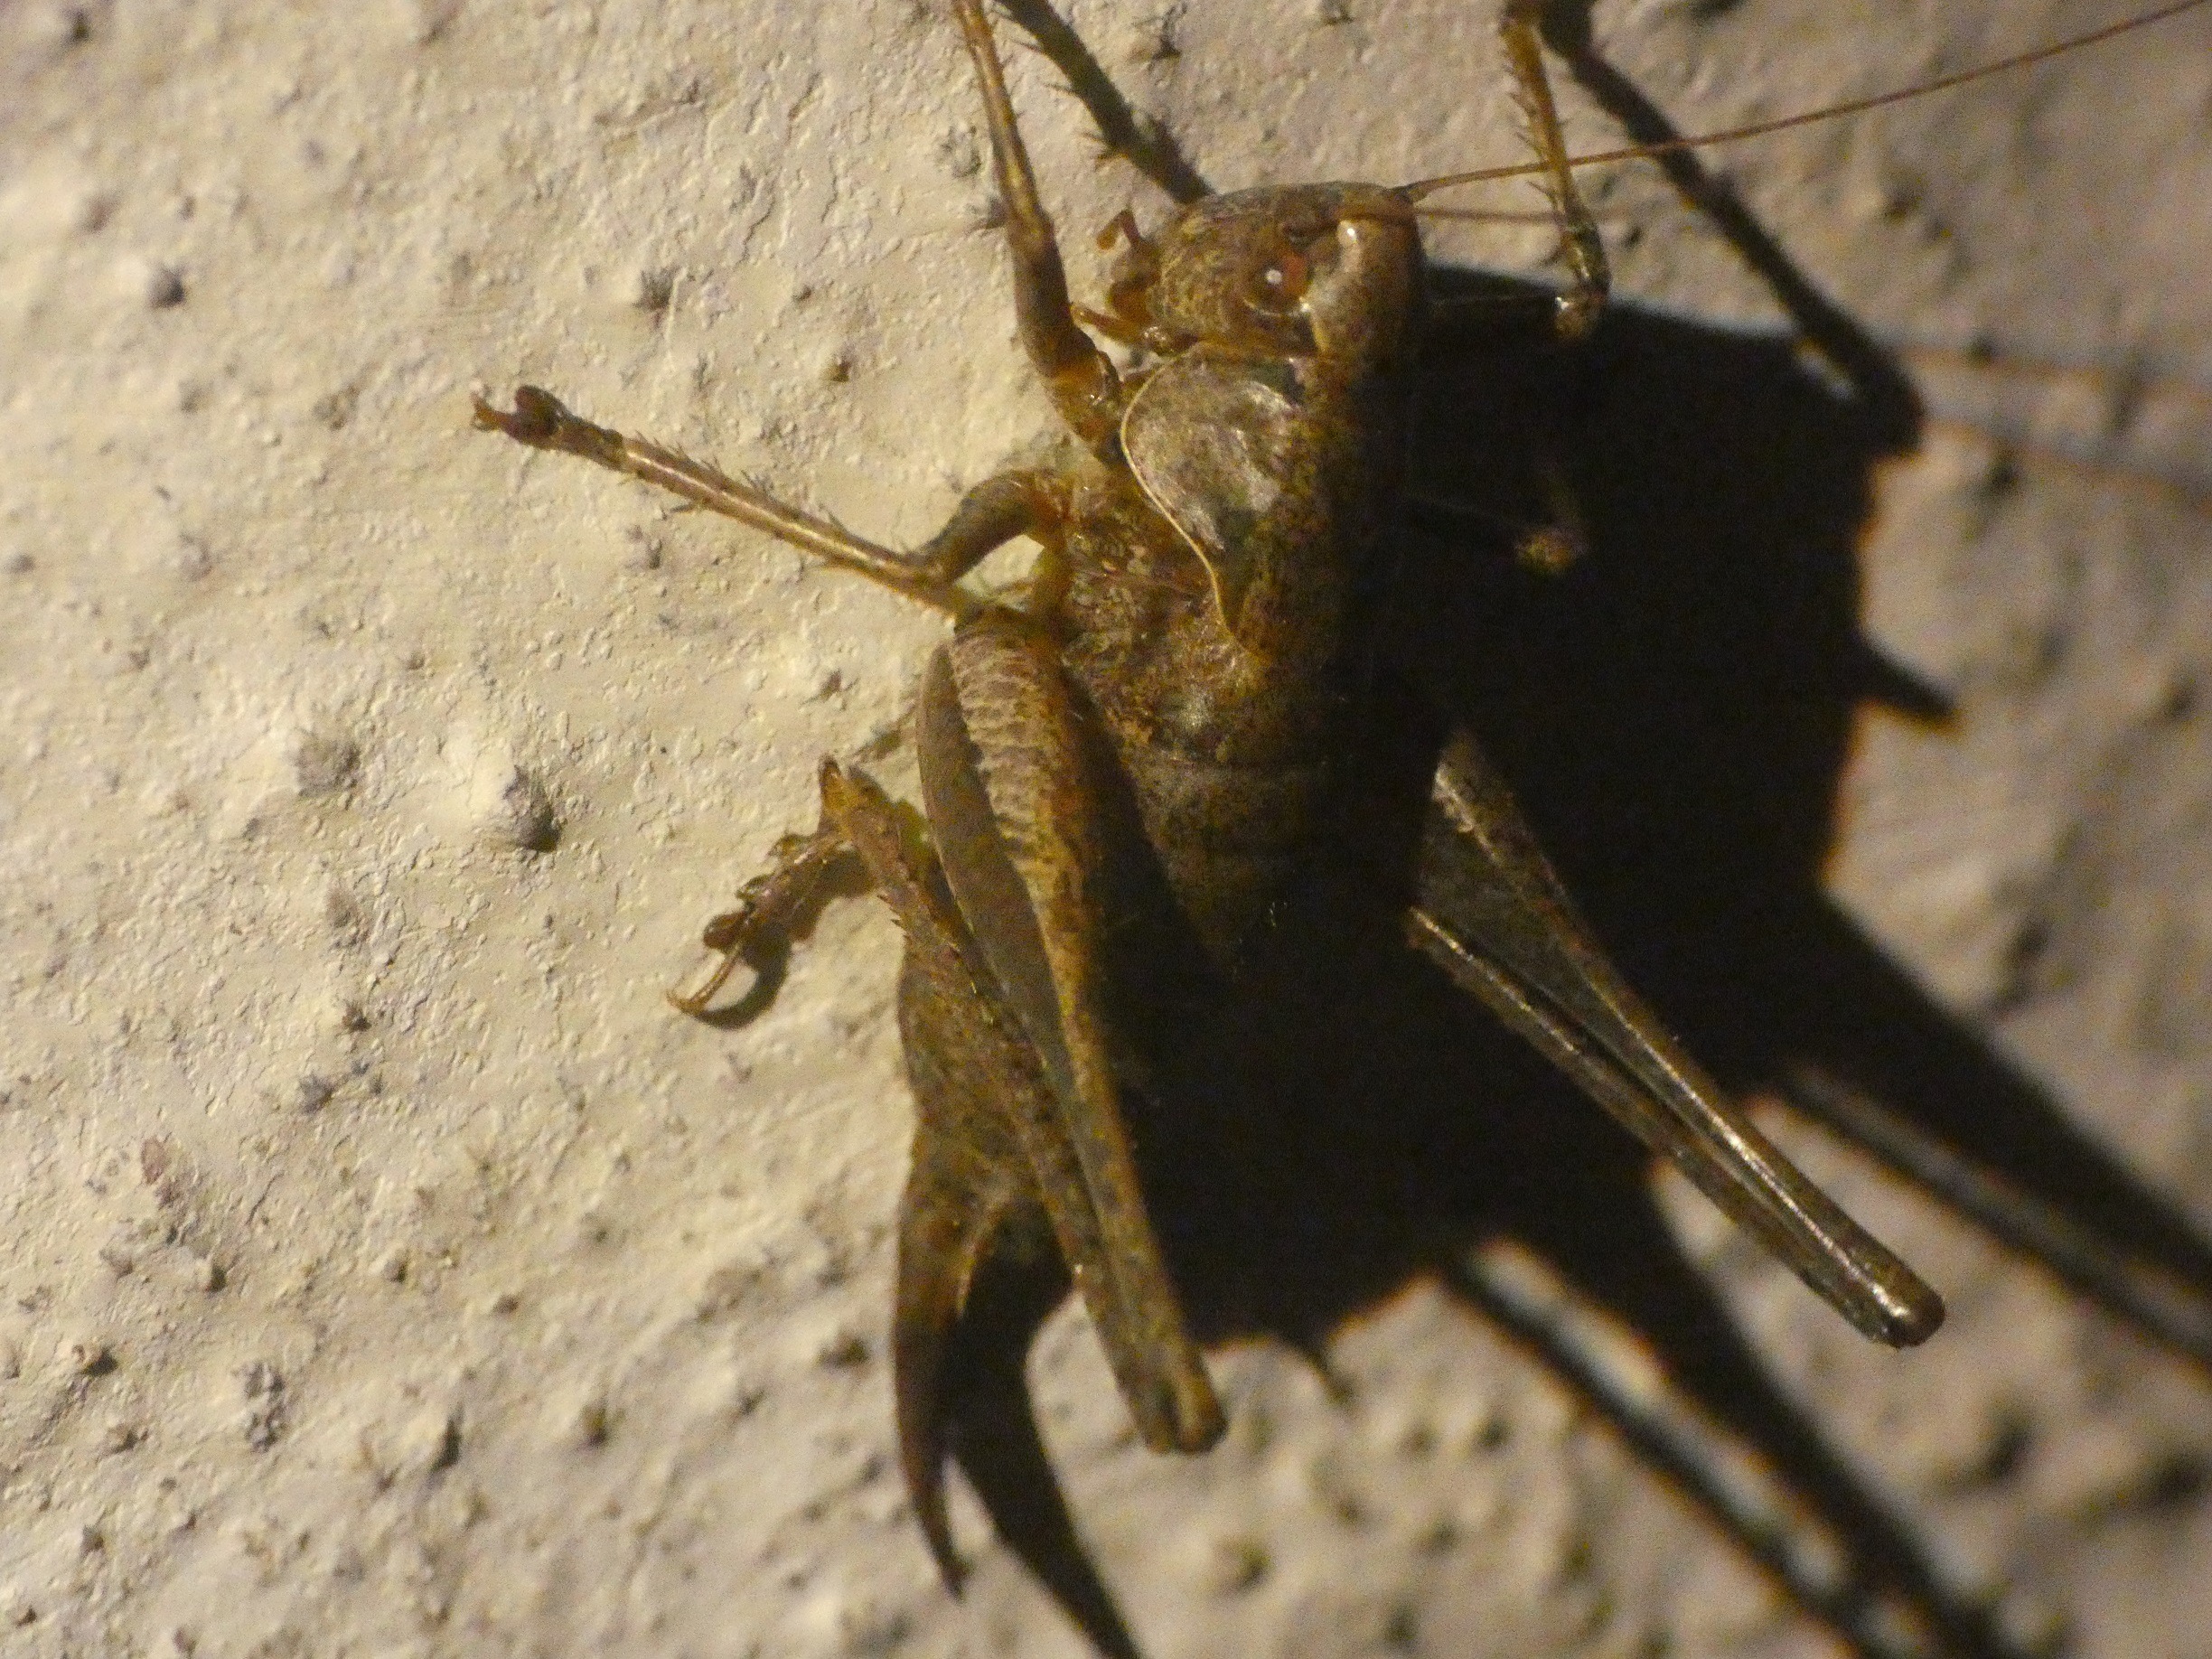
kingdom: Animalia
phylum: Arthropoda
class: Insecta
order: Orthoptera
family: Tettigoniidae
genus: Pholidoptera
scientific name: Pholidoptera griseoaptera
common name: Buskgræshoppe
